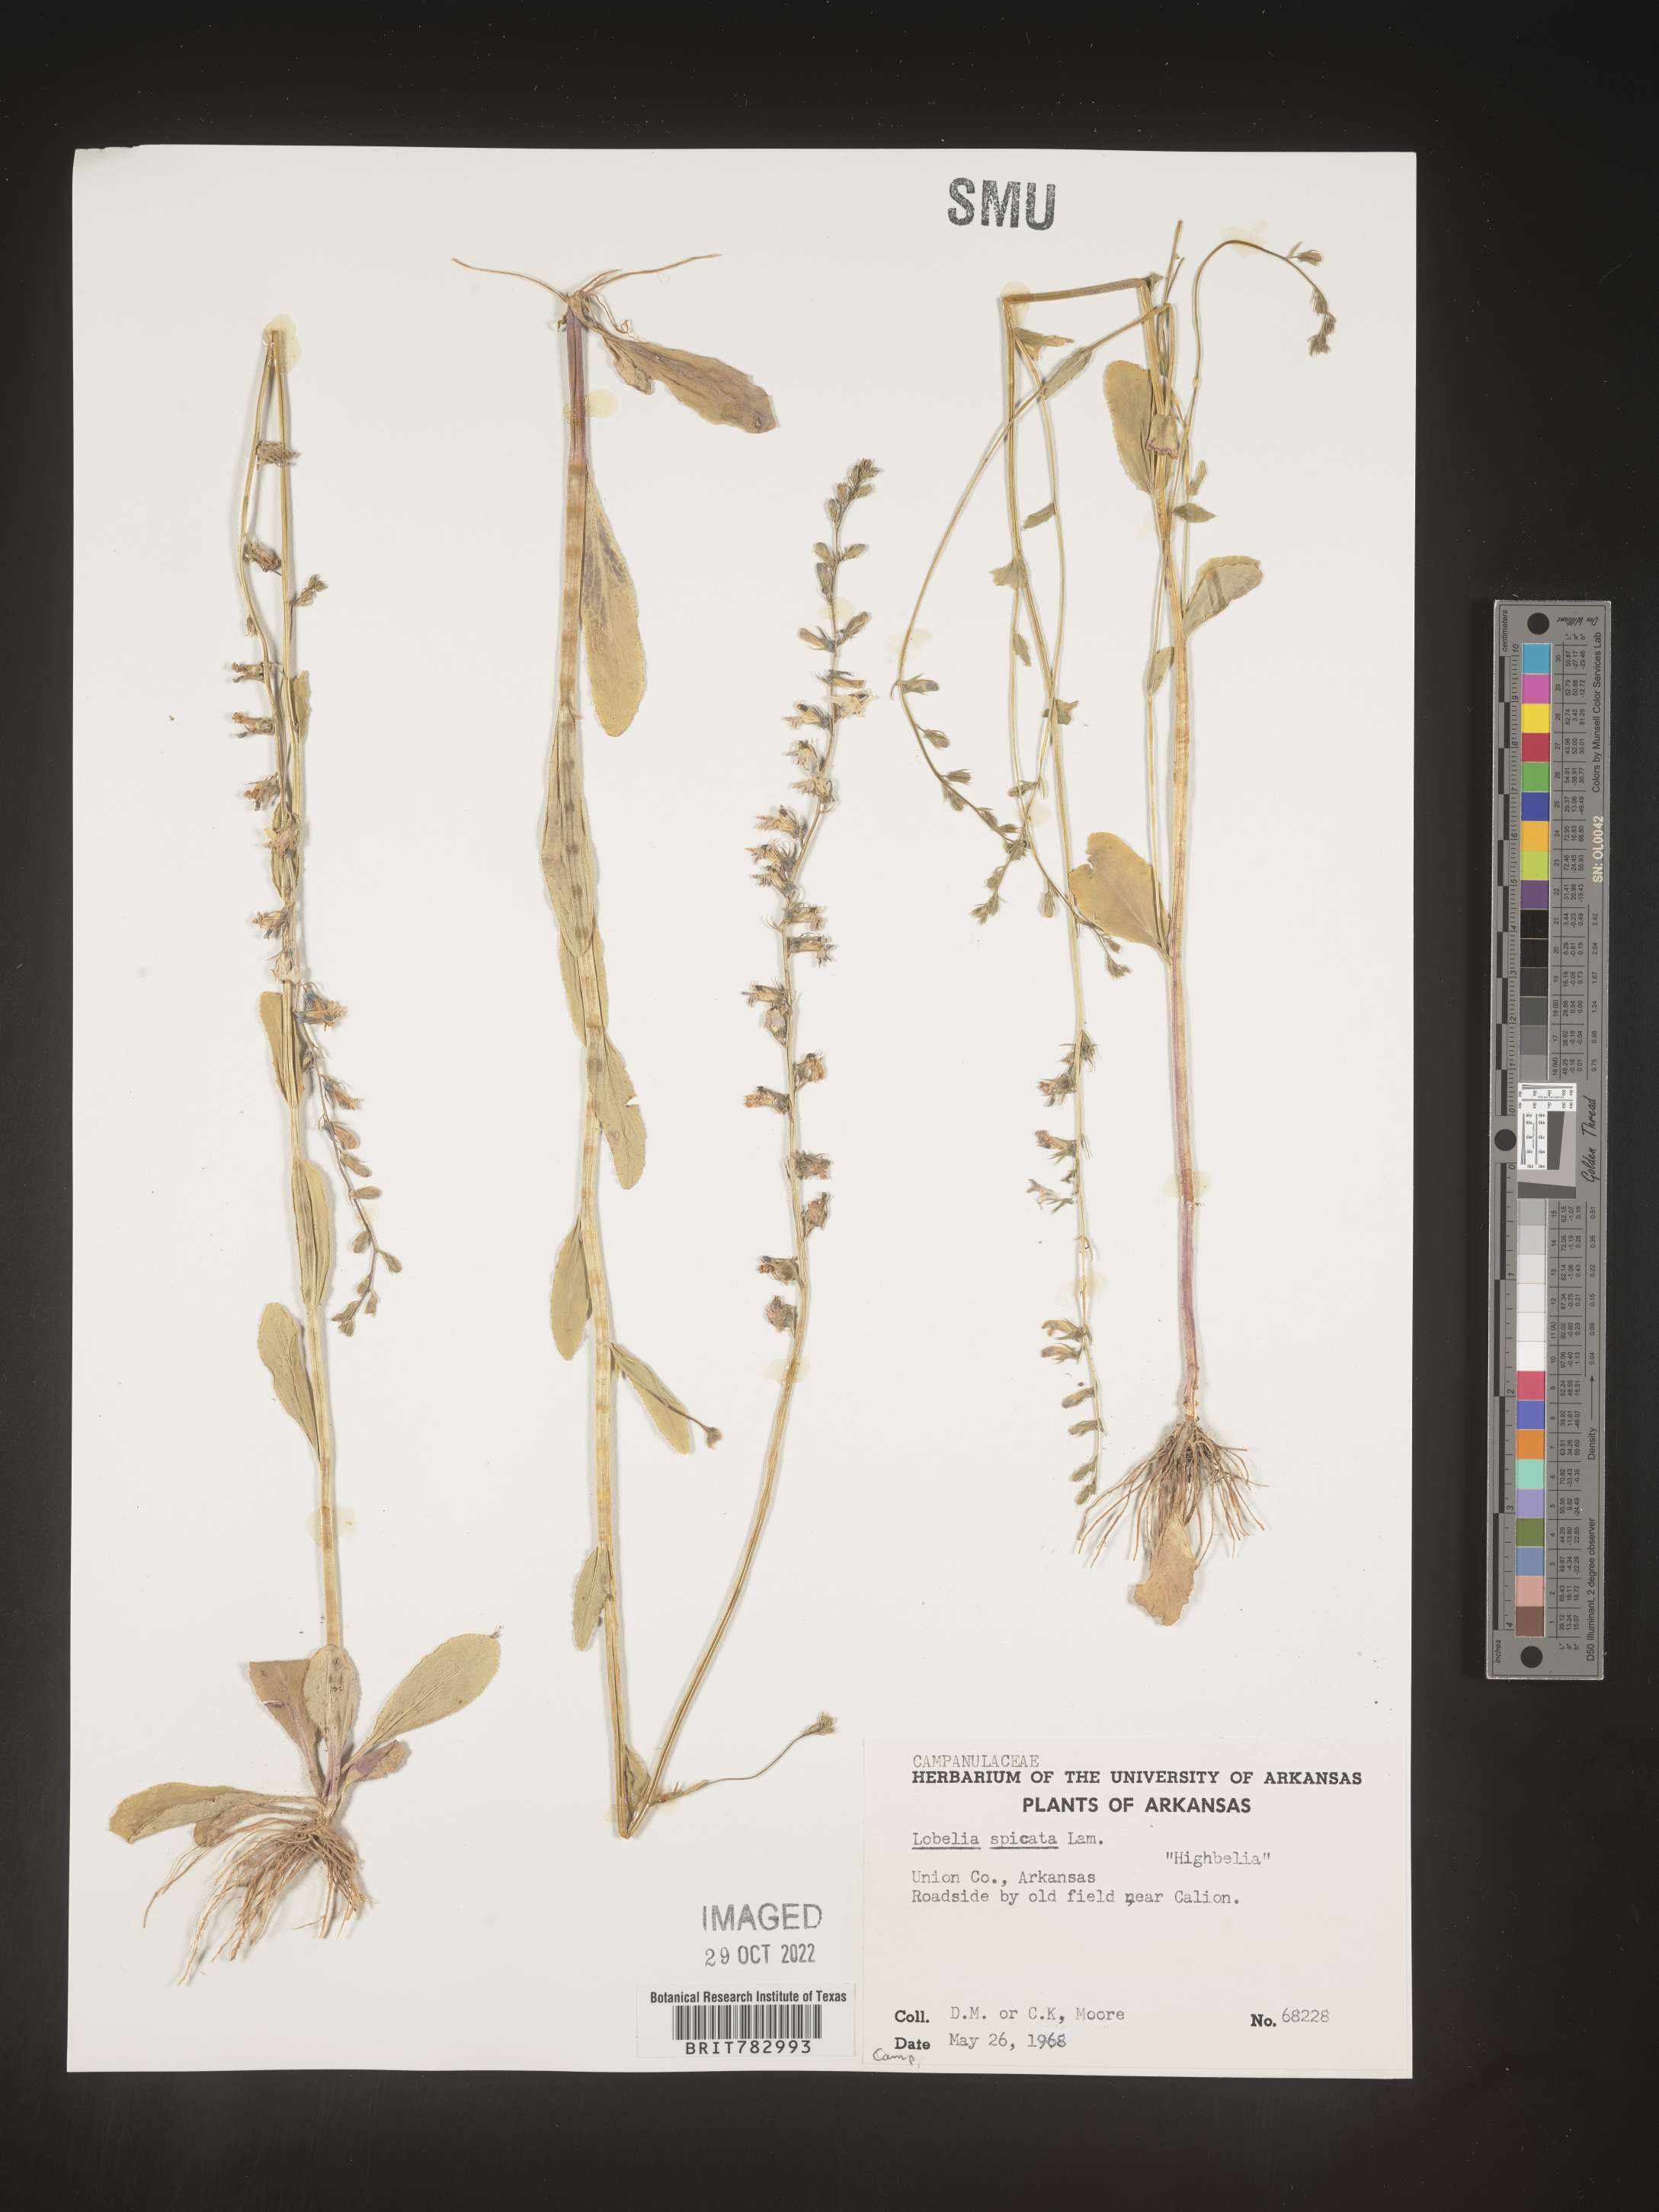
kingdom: Plantae
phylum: Tracheophyta
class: Magnoliopsida
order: Asterales
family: Campanulaceae
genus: Lobelia
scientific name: Lobelia spicata
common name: Pale-spike lobelia
